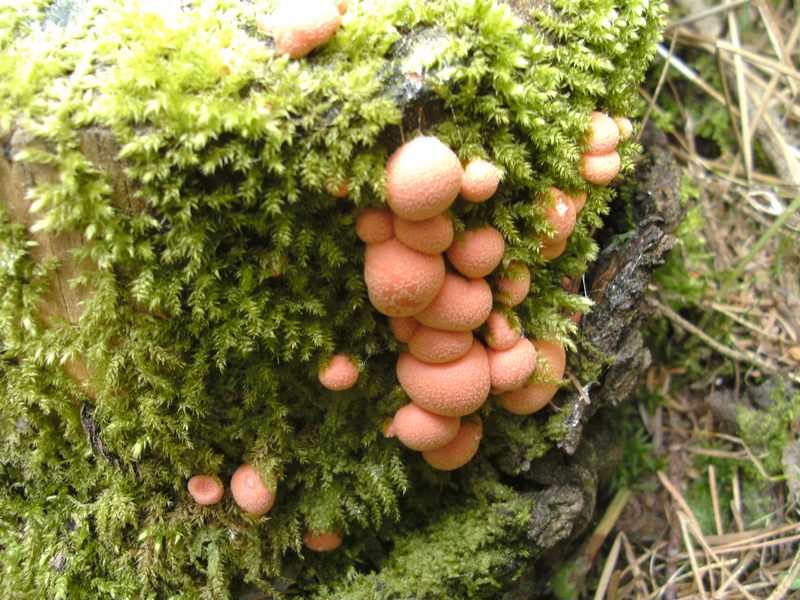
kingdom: Protozoa
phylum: Mycetozoa
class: Myxomycetes
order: Cribrariales
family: Tubiferaceae
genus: Lycogala
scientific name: Lycogala epidendrum
